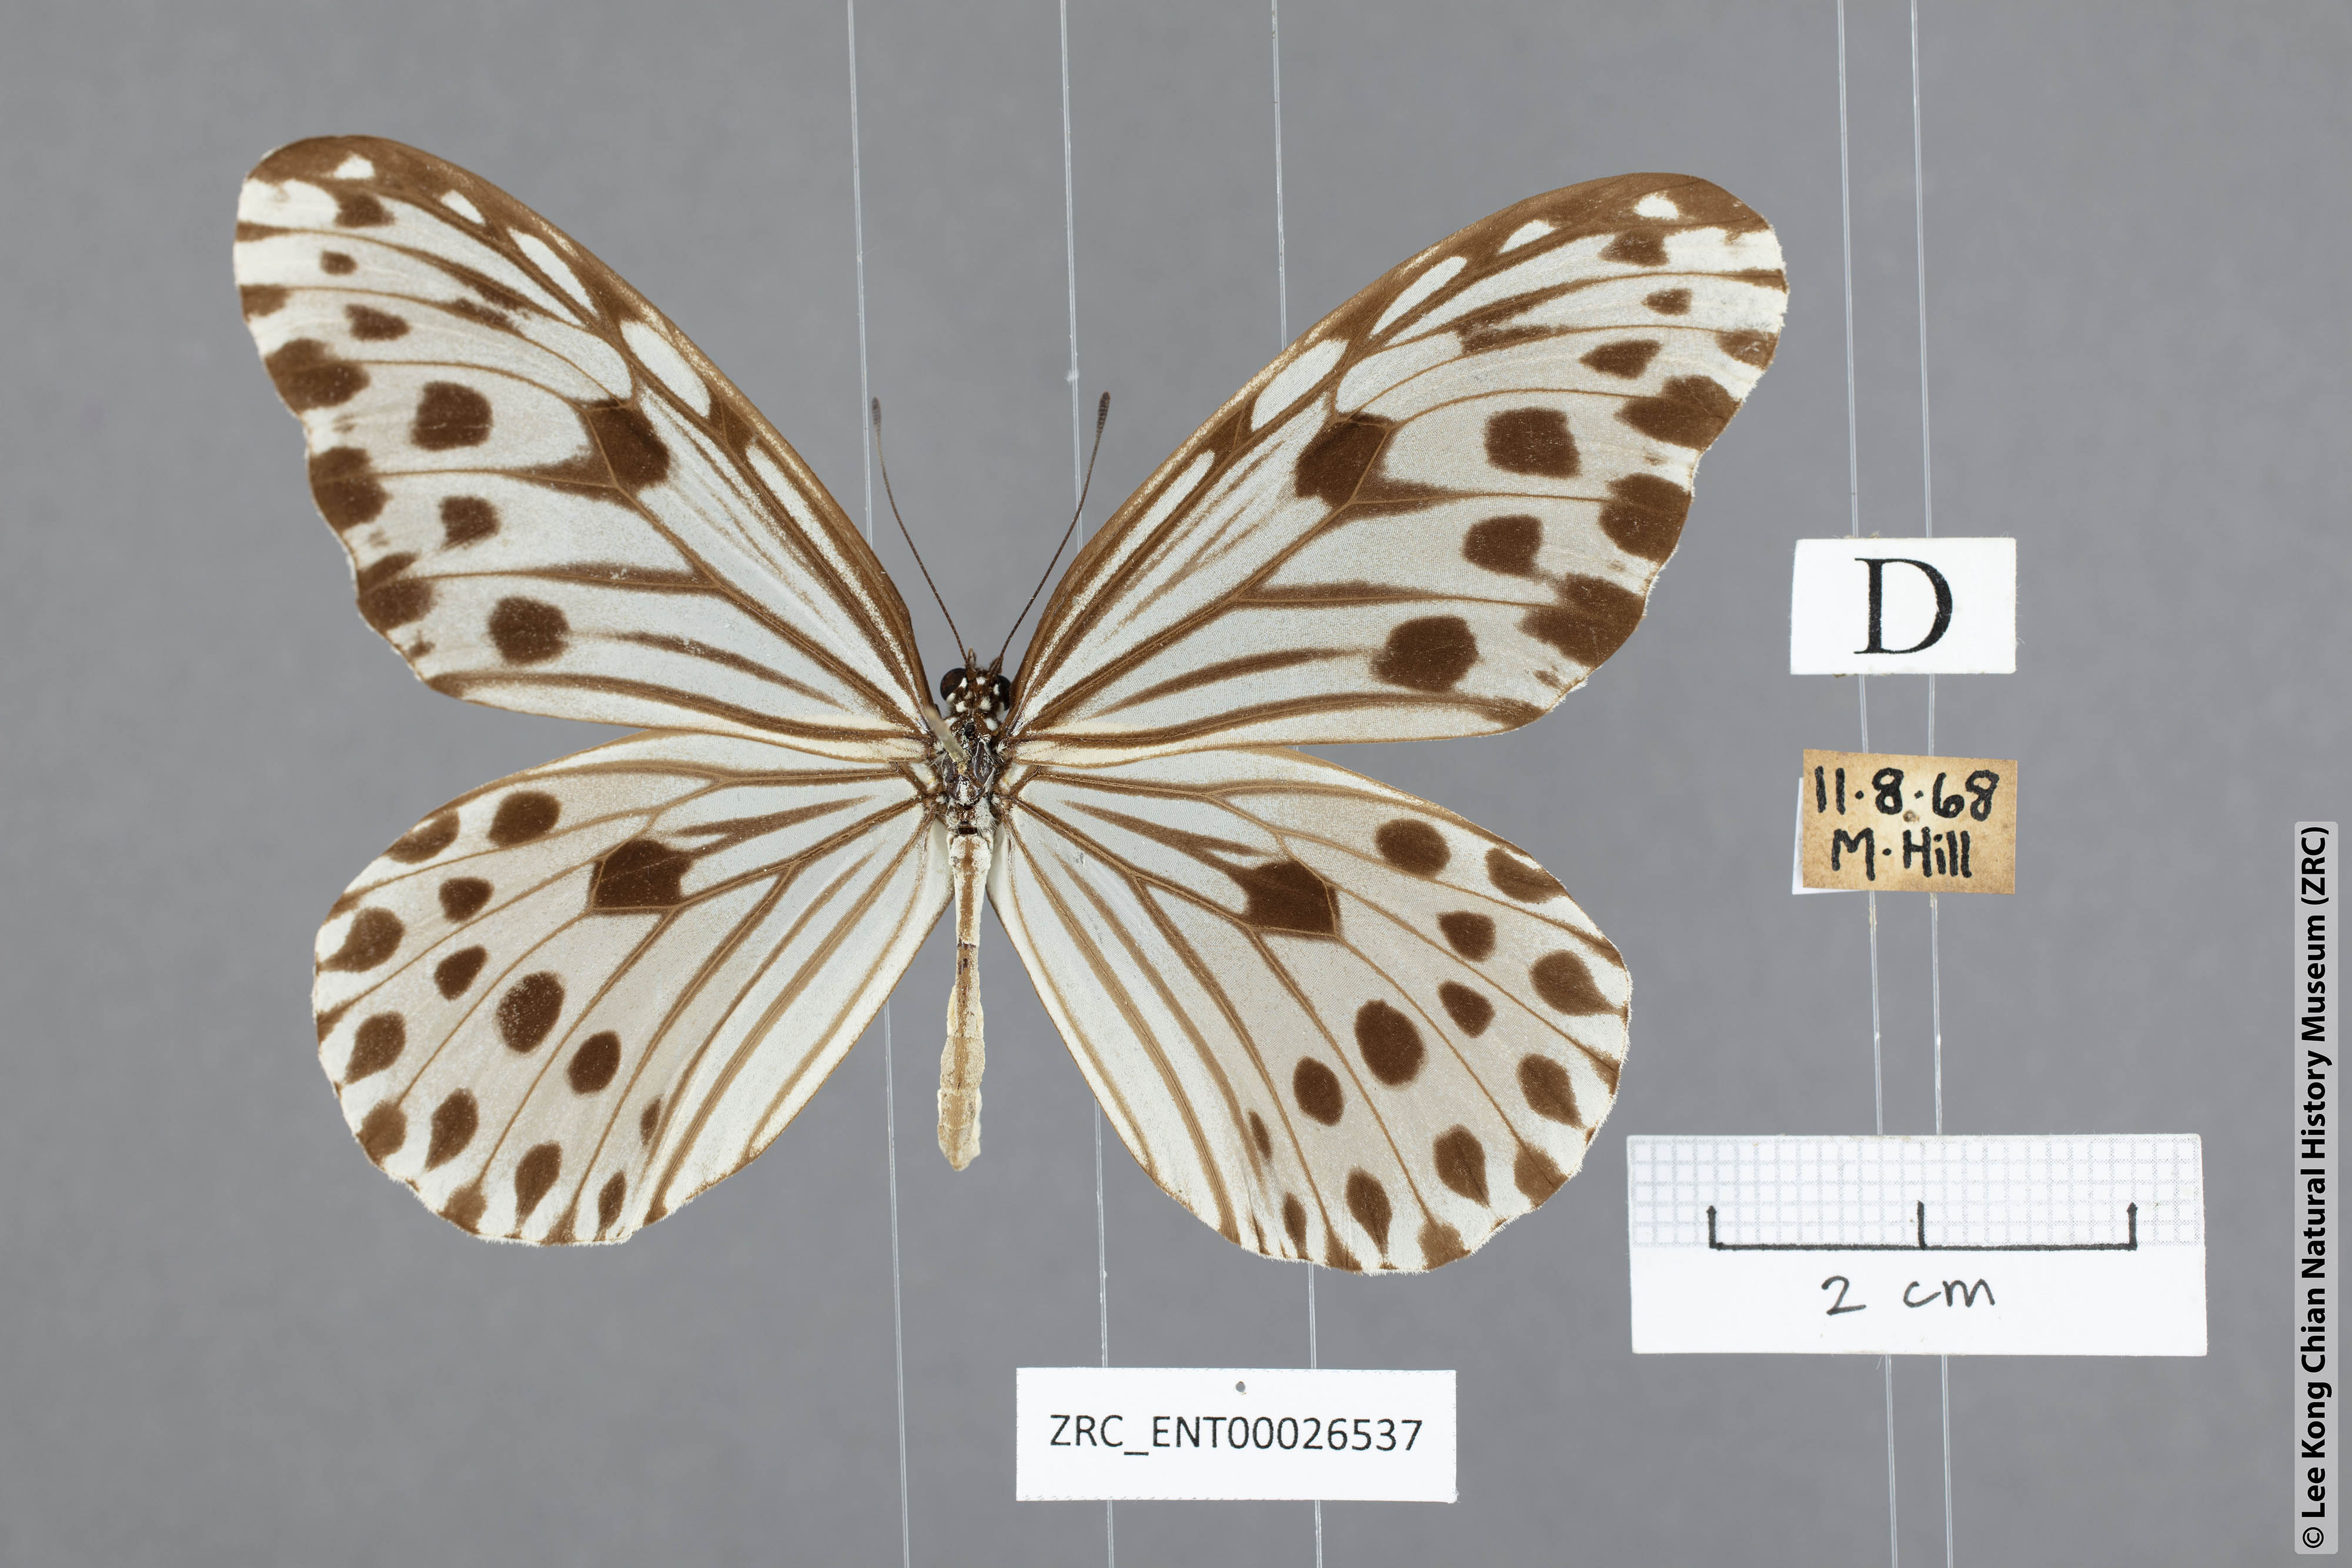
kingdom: Animalia
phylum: Arthropoda
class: Insecta
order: Lepidoptera
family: Nymphalidae
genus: Ideopsis
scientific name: Ideopsis gaura
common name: Smaller wood nymph
